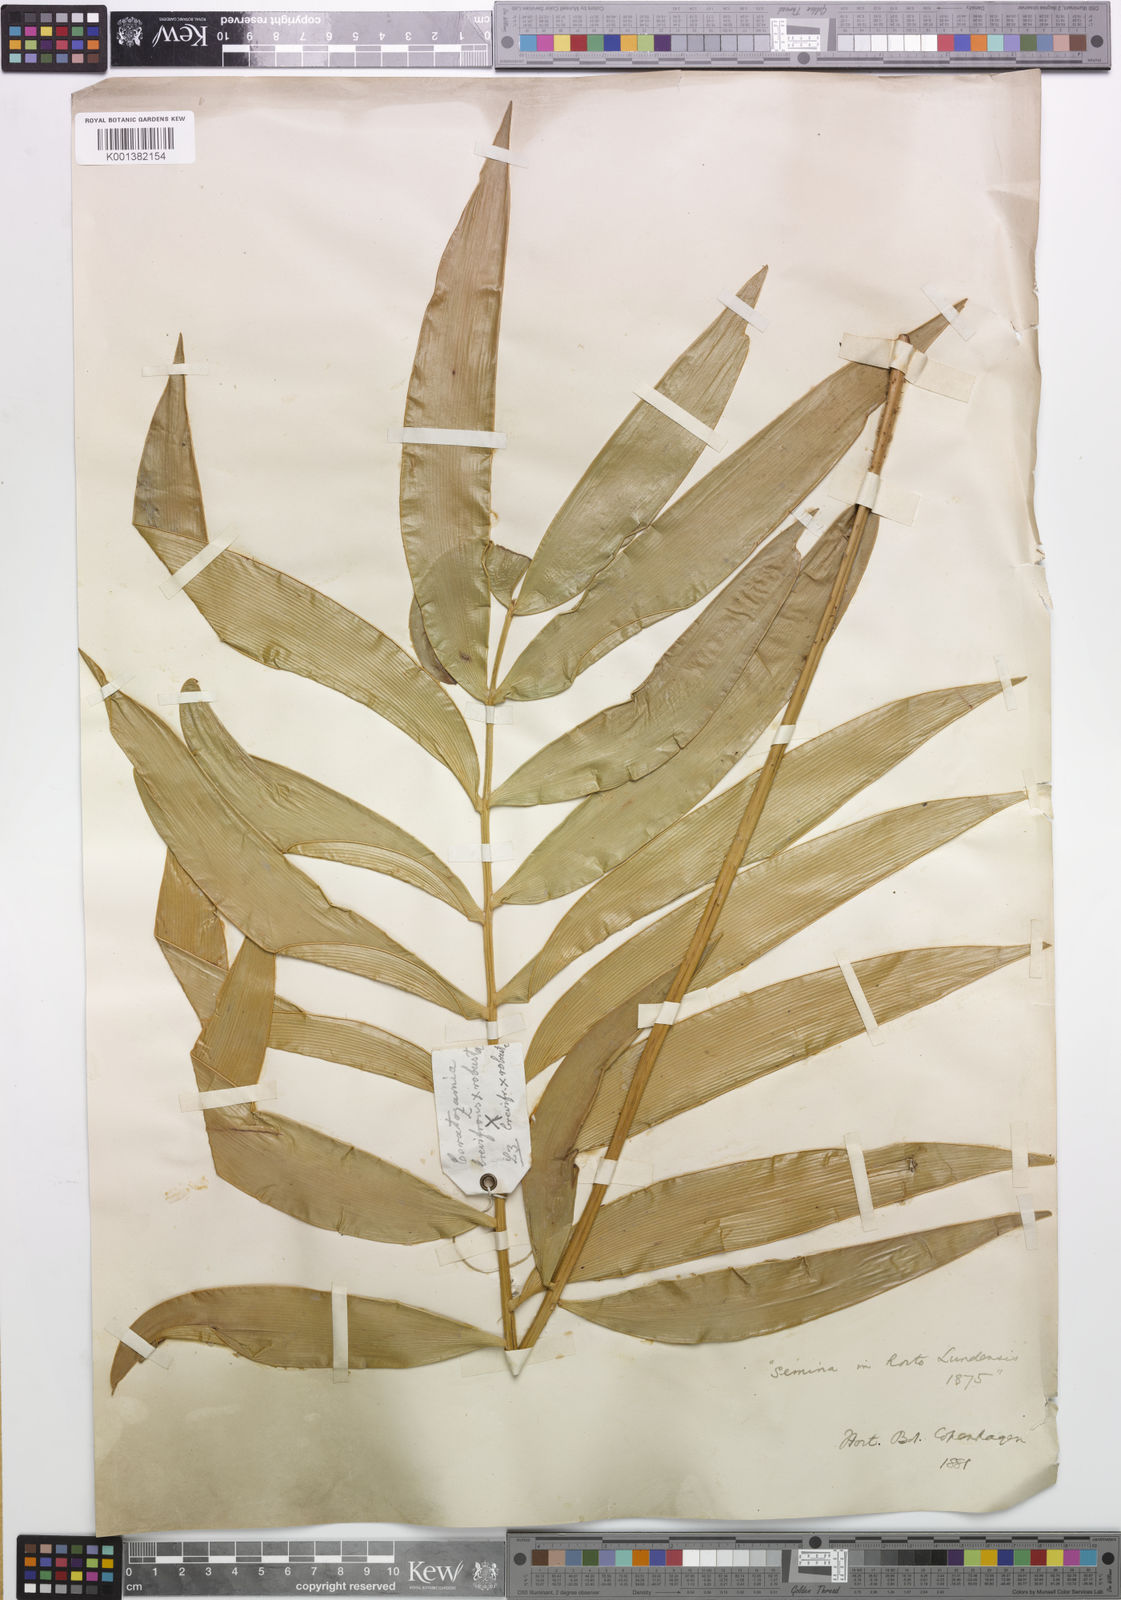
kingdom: Plantae
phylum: Tracheophyta
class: Cycadopsida
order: Cycadales
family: Zamiaceae
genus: Ceratozamia
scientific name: Ceratozamia brevifrons
